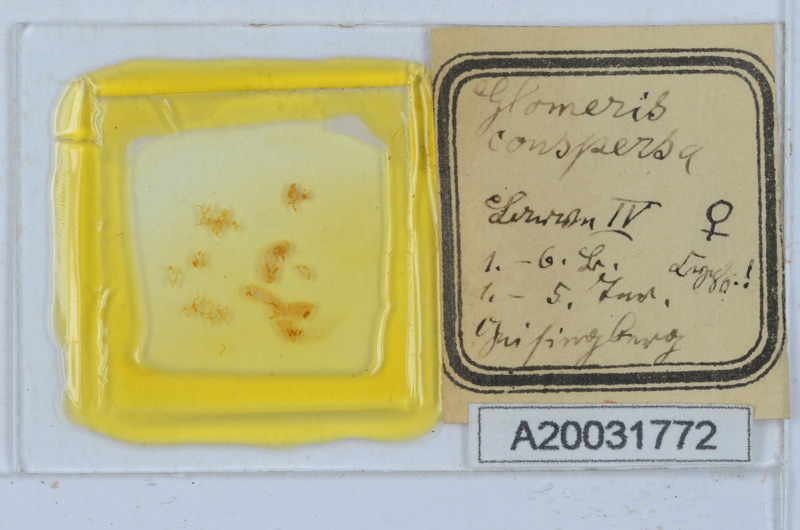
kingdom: Animalia
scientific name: Animalia
